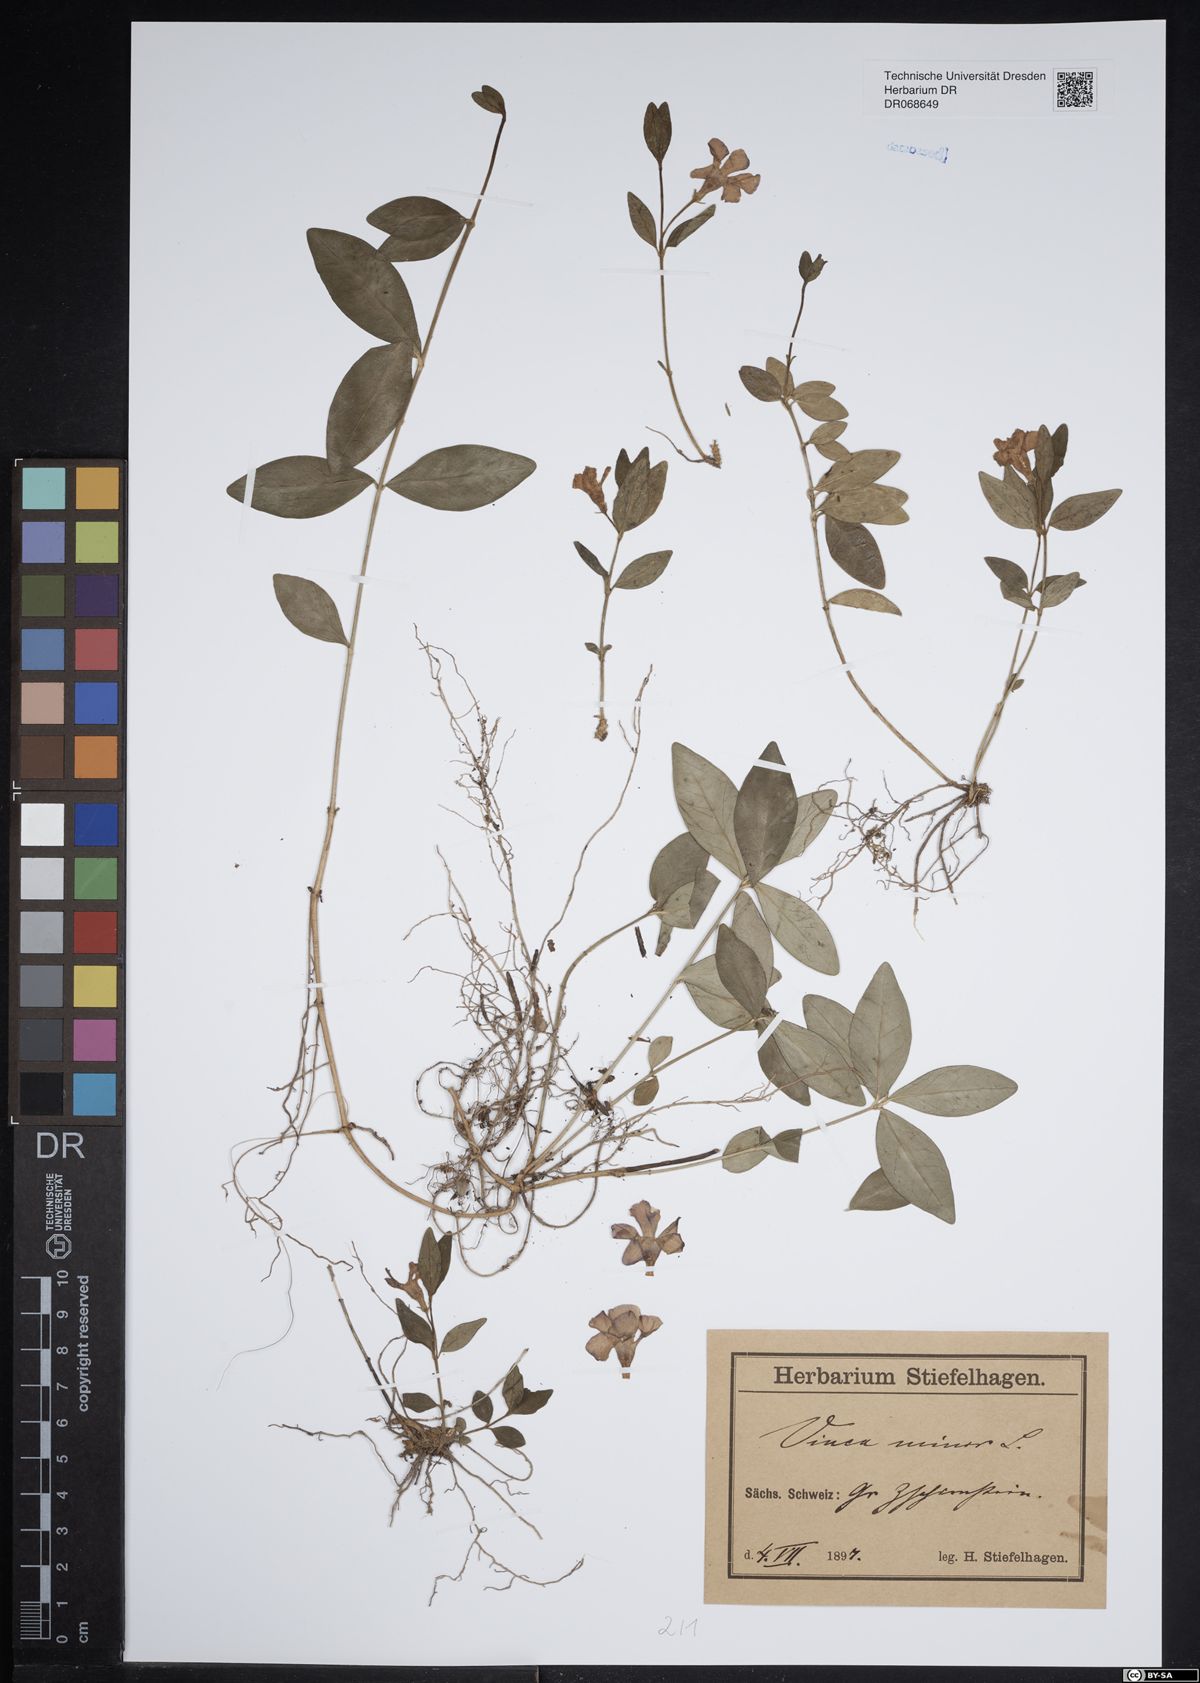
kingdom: Plantae
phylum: Tracheophyta
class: Magnoliopsida
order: Gentianales
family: Apocynaceae
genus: Vinca
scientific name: Vinca minor
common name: Lesser periwinkle
